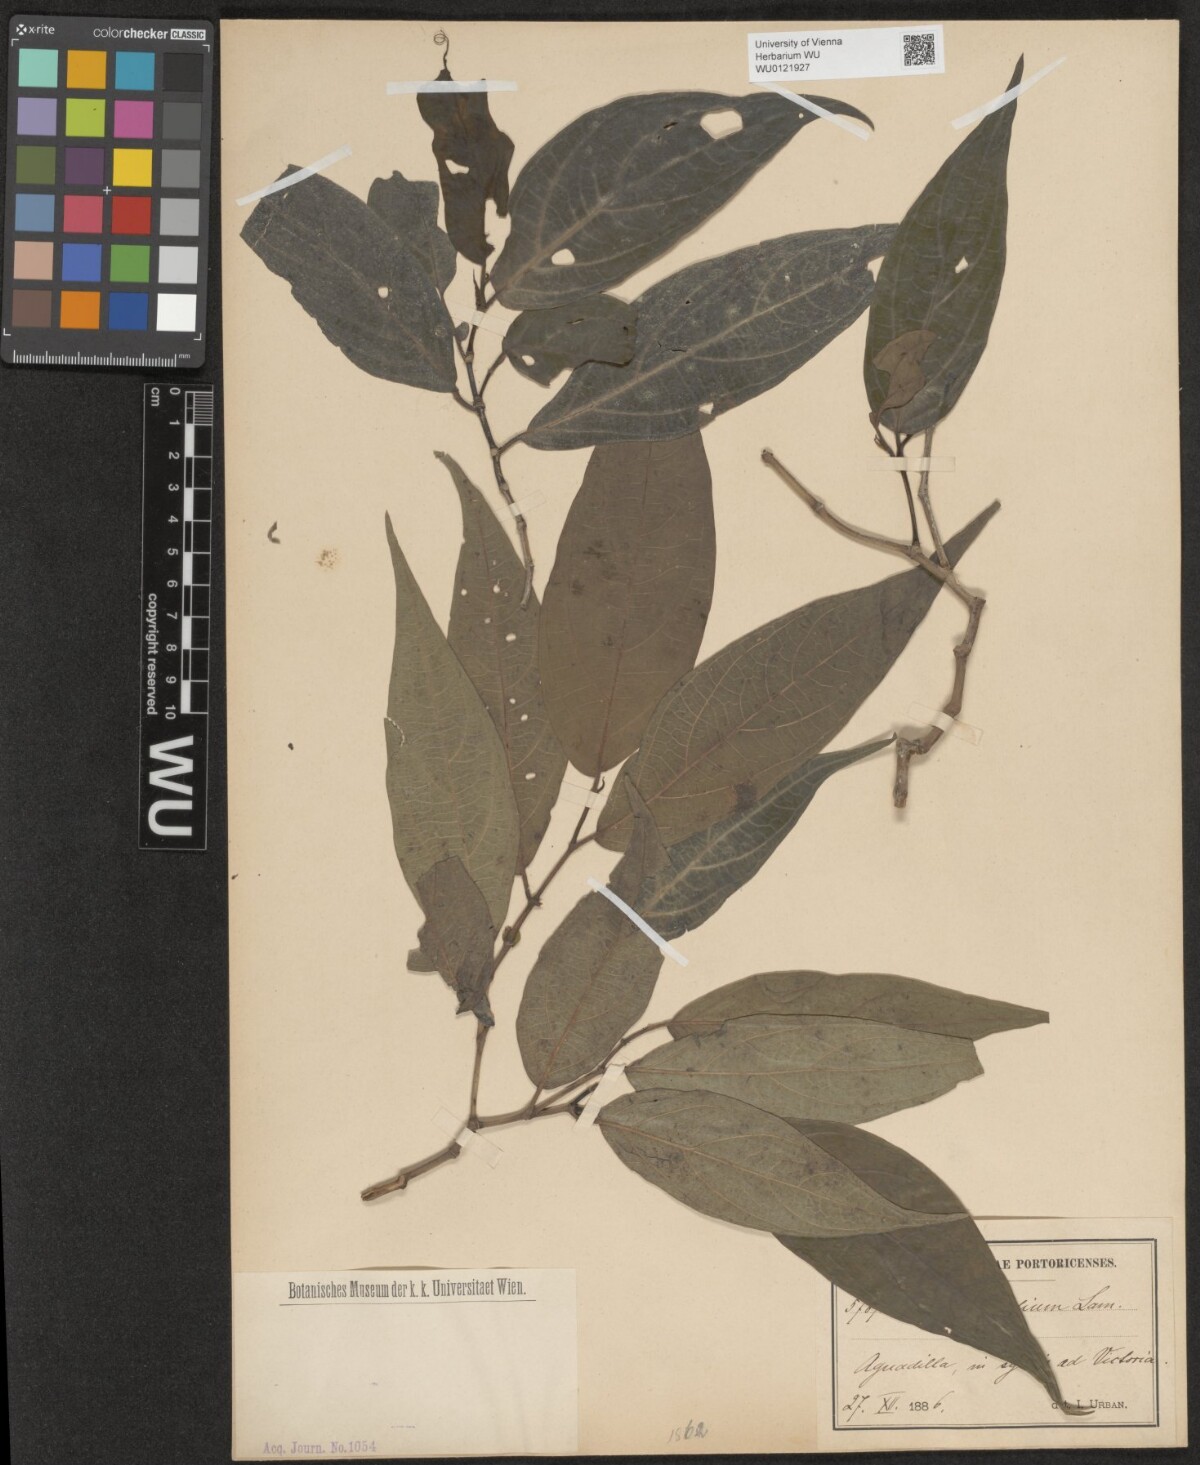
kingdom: Plantae
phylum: Tracheophyta
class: Magnoliopsida
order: Piperales
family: Piperaceae
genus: Piper
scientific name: Piper jacquemontianum
